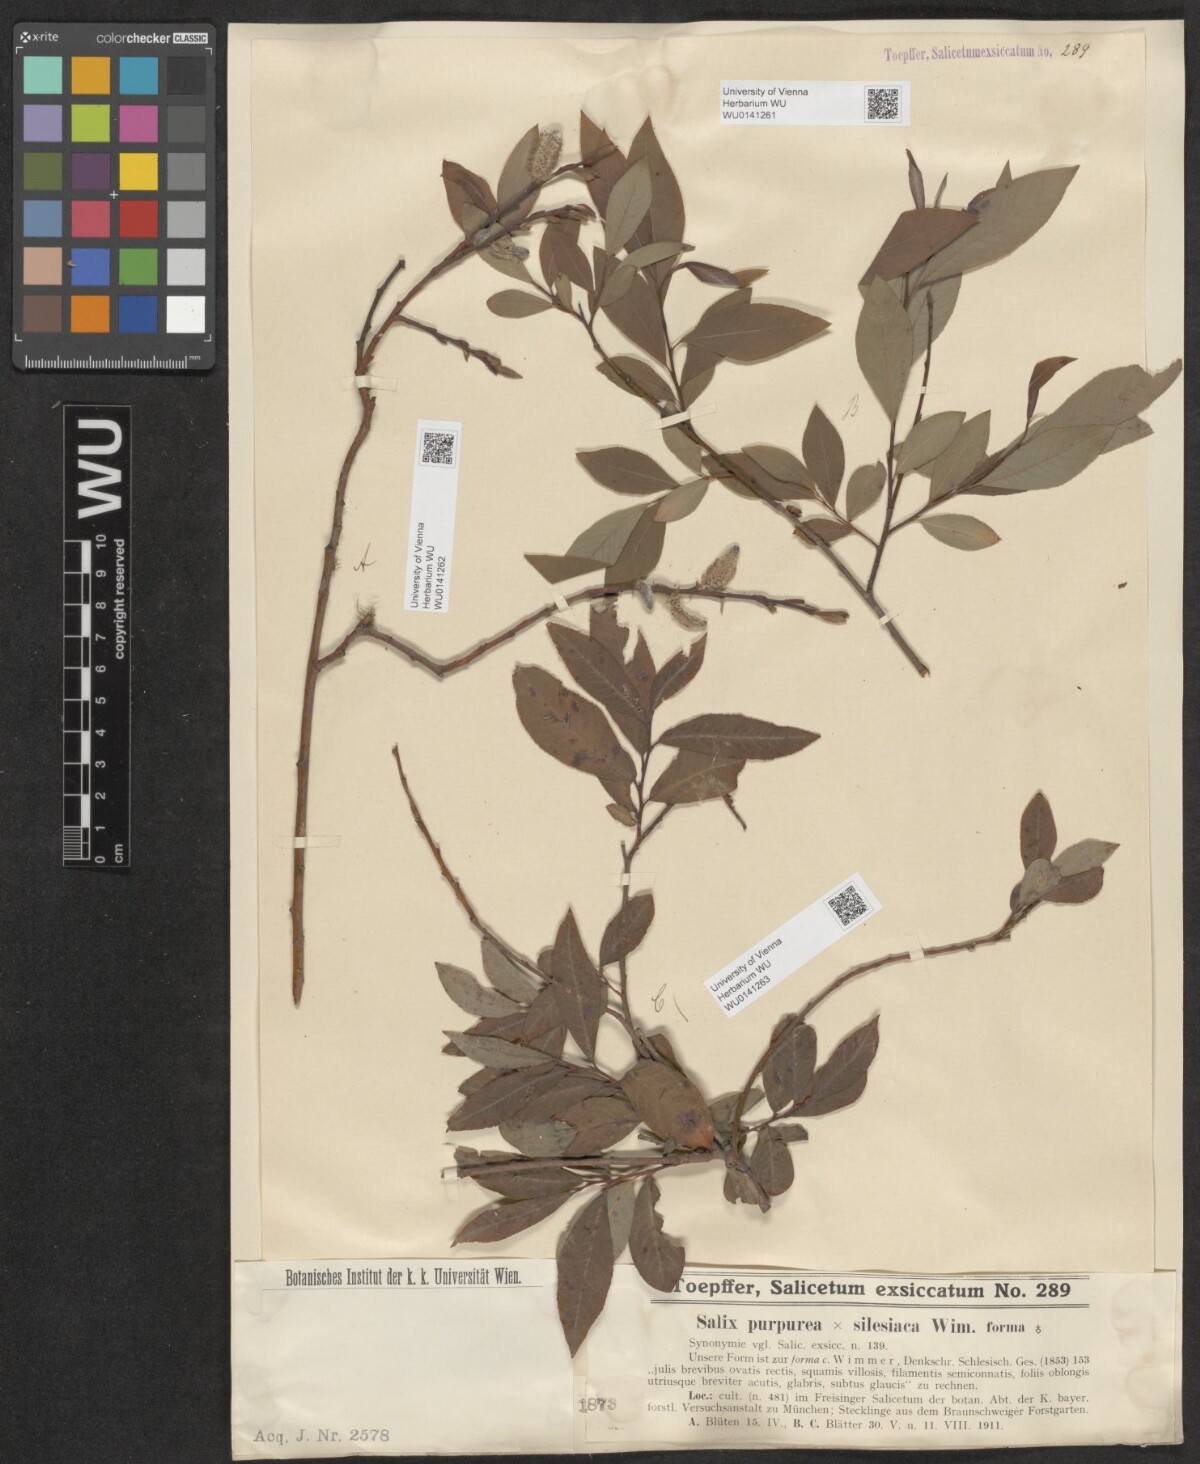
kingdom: Plantae
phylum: Tracheophyta
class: Magnoliopsida
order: Malpighiales
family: Salicaceae
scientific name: Salicaceae
